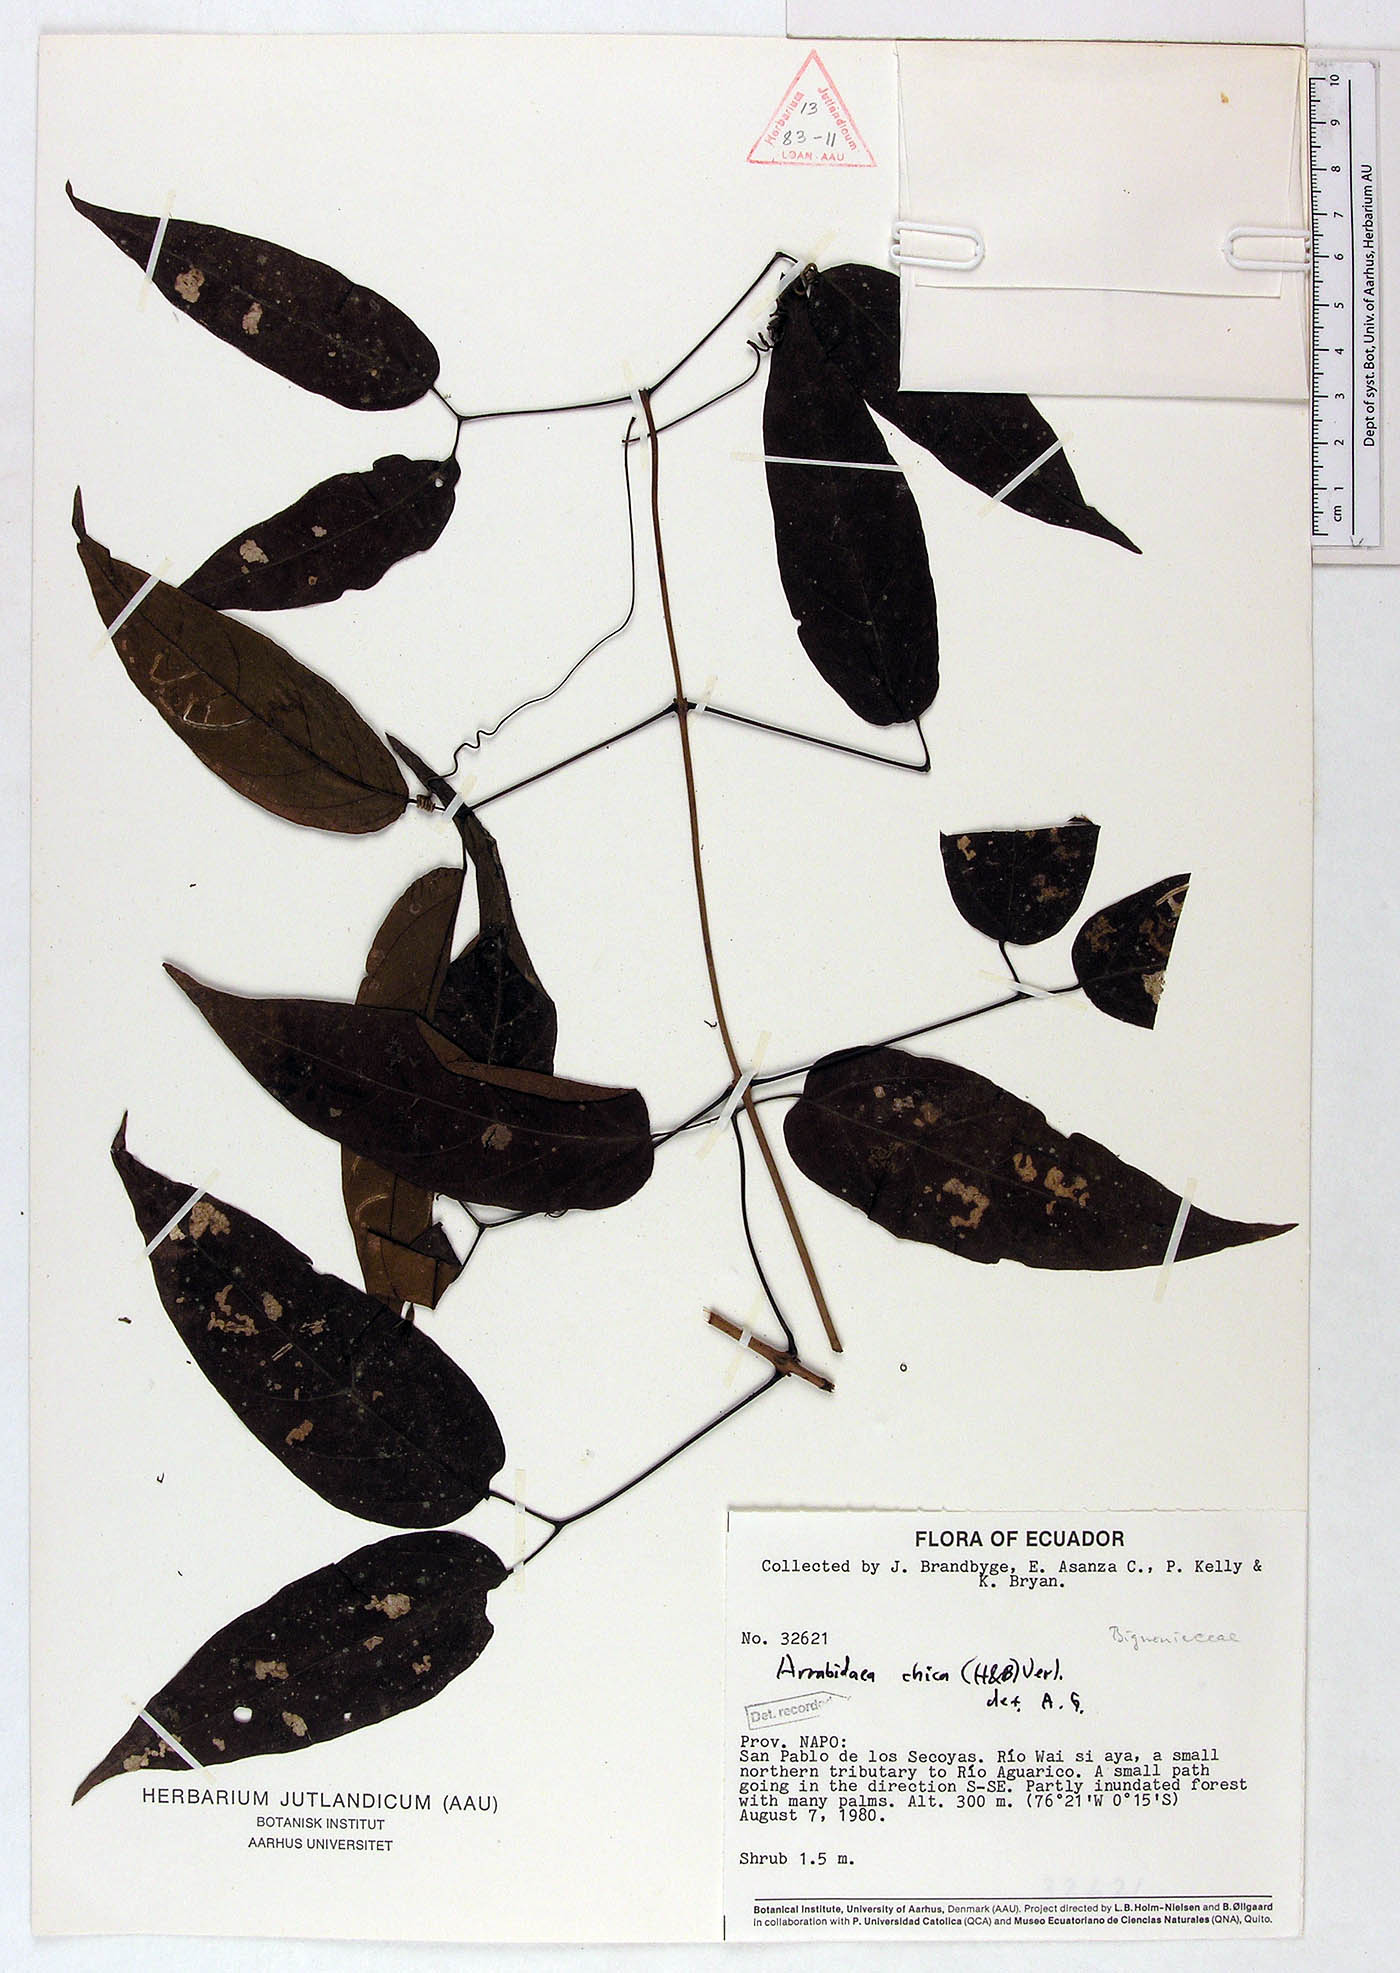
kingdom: Plantae
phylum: Tracheophyta
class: Magnoliopsida
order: Lamiales
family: Bignoniaceae
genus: Fridericia
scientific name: Fridericia chica
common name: Cricketvine
